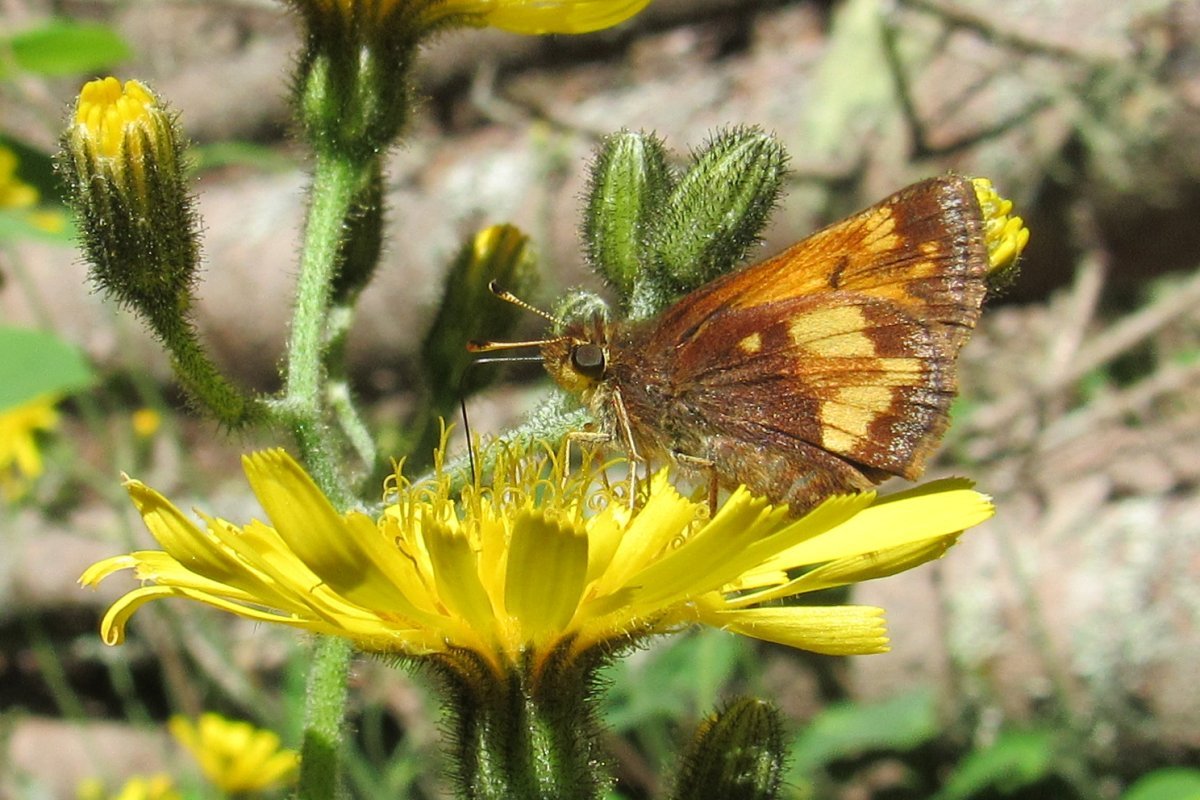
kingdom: Animalia
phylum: Arthropoda
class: Insecta
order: Lepidoptera
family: Hesperiidae
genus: Lon
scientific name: Lon hobomok
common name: Hobomok Skipper
